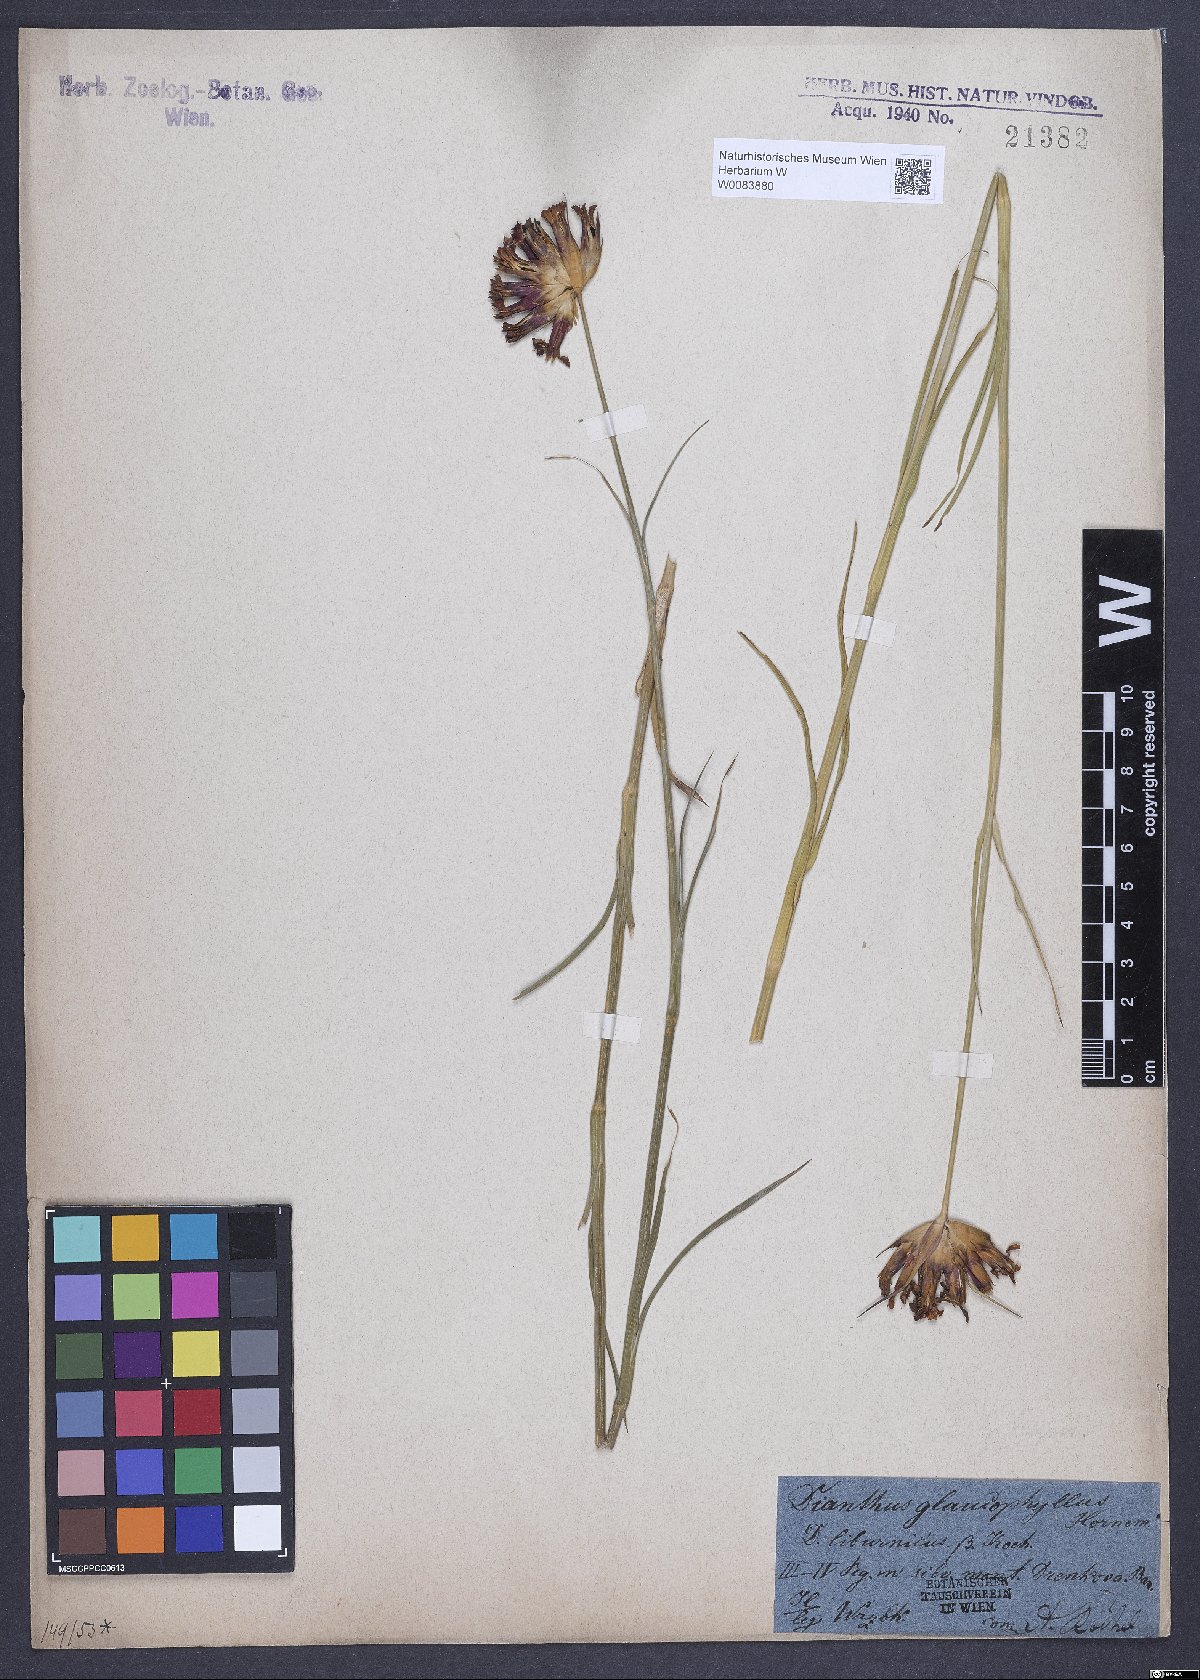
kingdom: Plantae
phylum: Tracheophyta
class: Magnoliopsida
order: Caryophyllales
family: Caryophyllaceae
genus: Dianthus
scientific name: Dianthus balbisii
